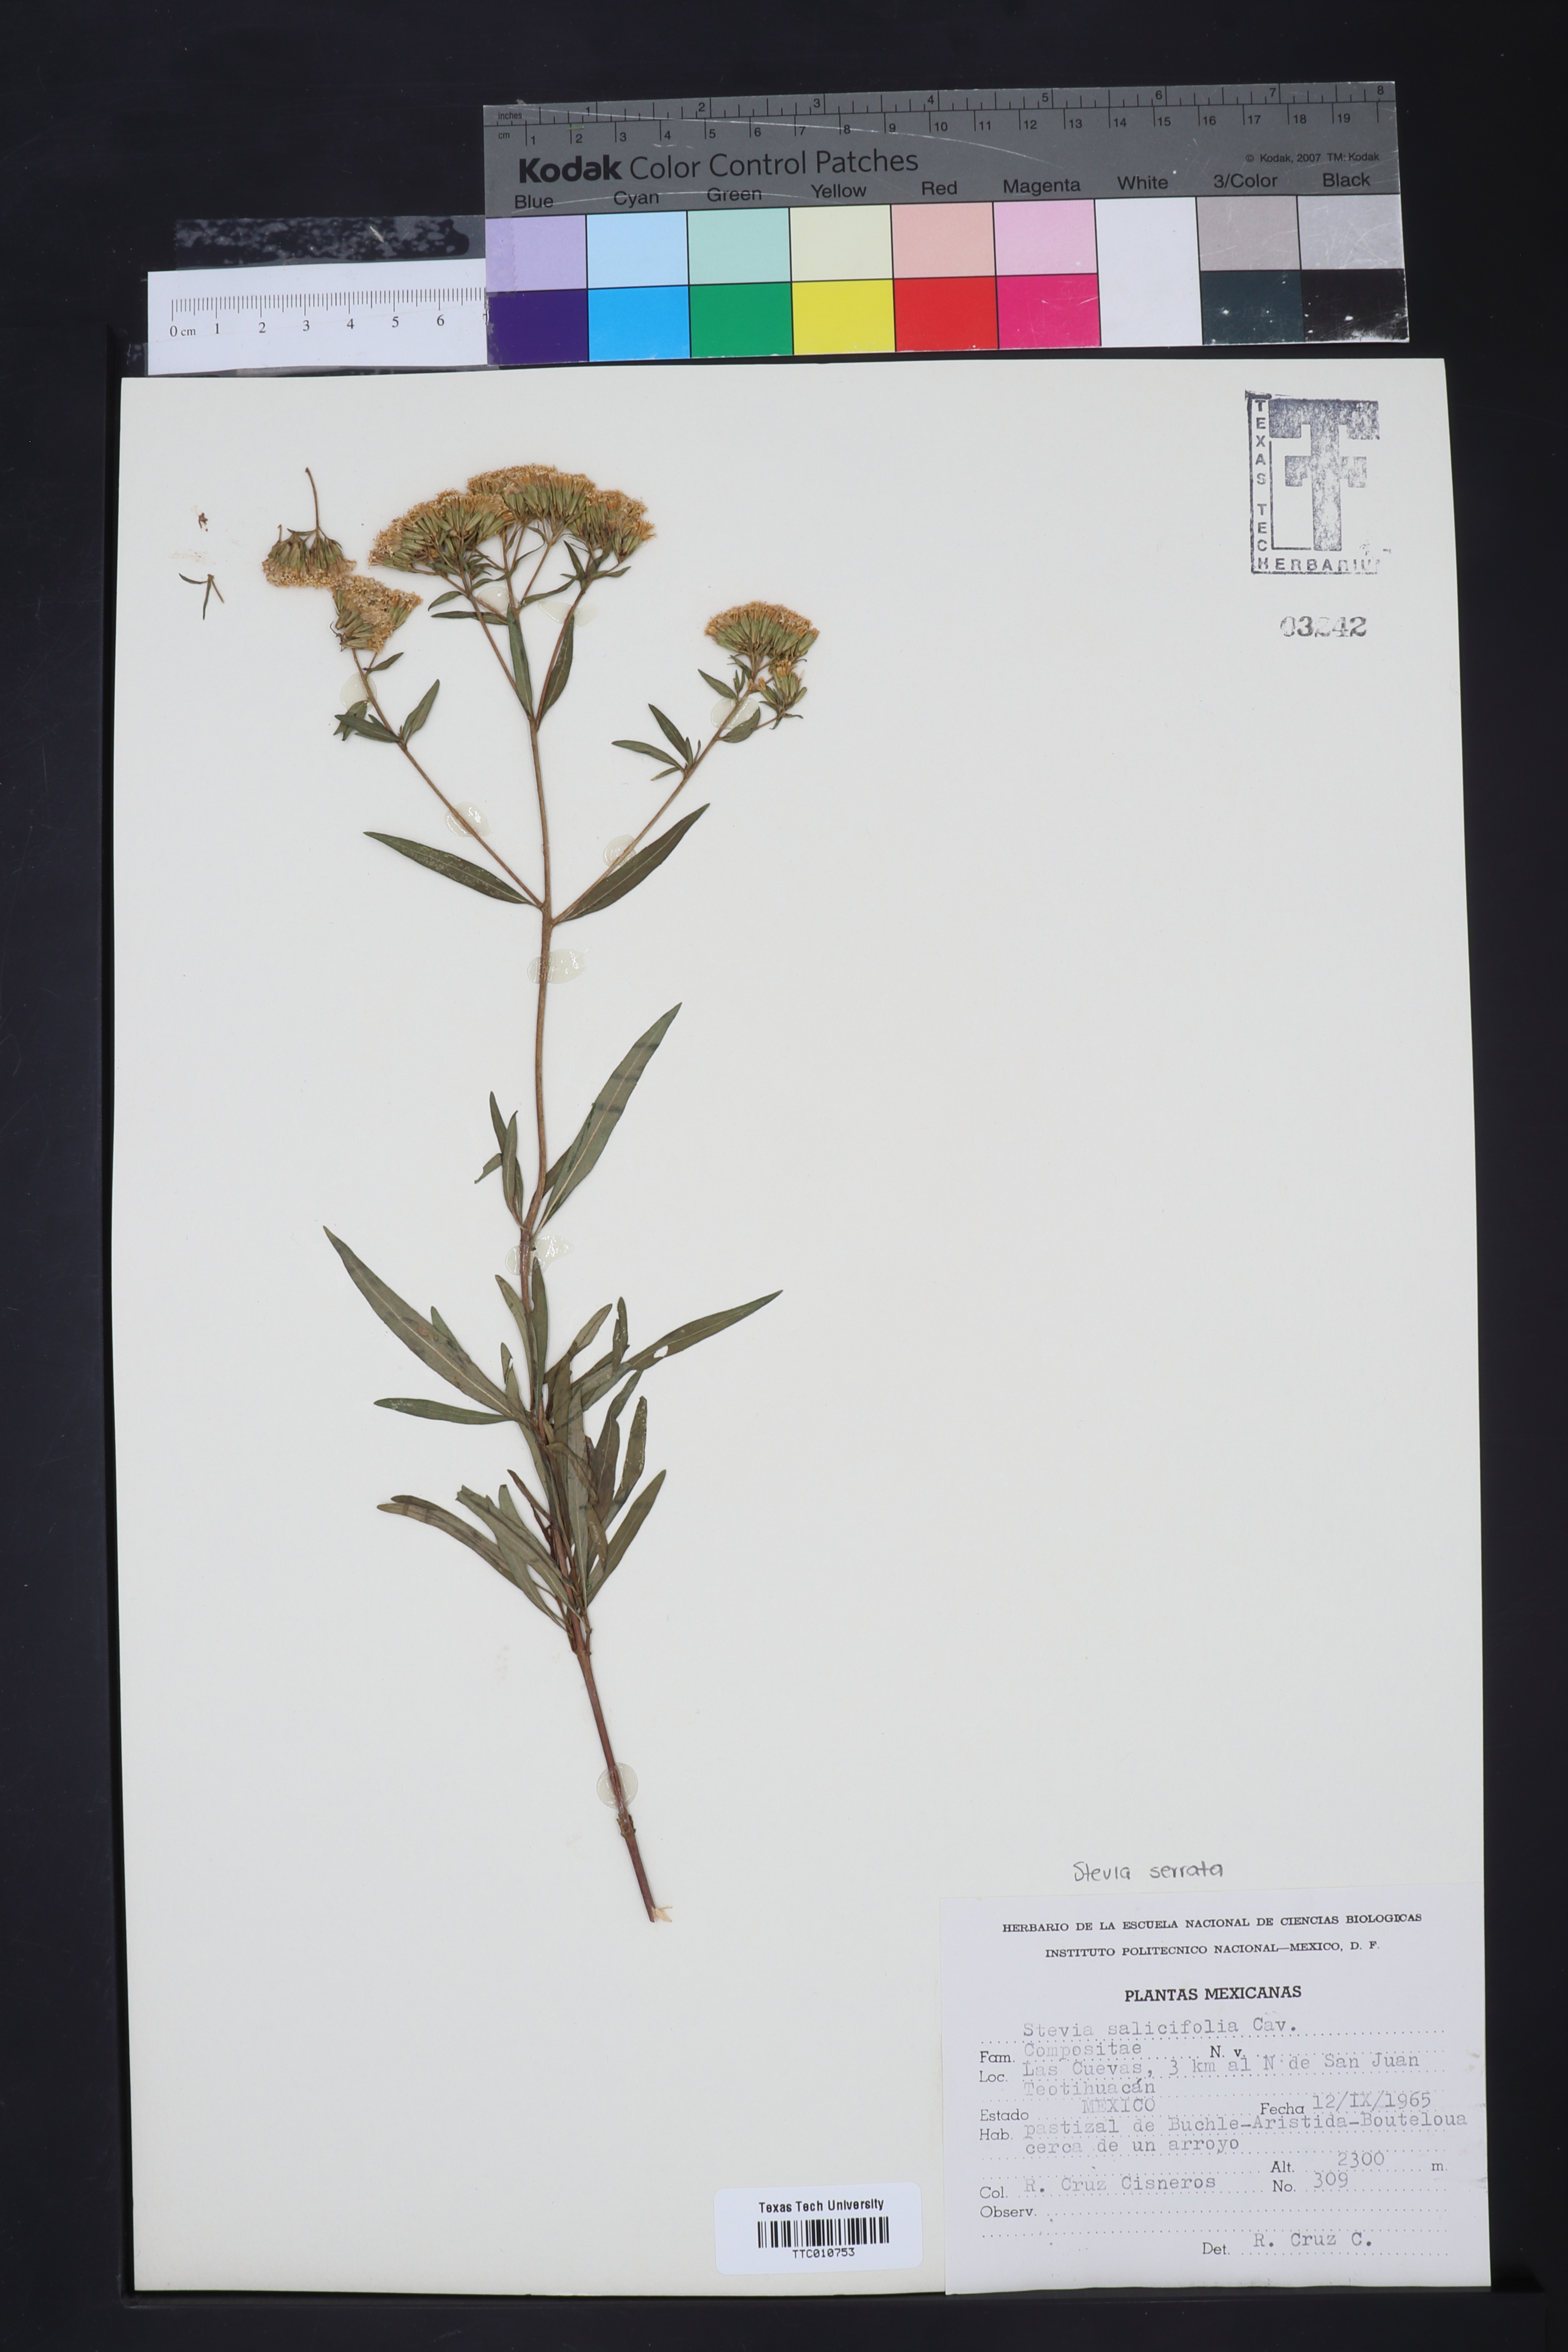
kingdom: Plantae
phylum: Tracheophyta
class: Magnoliopsida
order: Asterales
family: Asteraceae
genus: Stevia
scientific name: Stevia salicifolia
